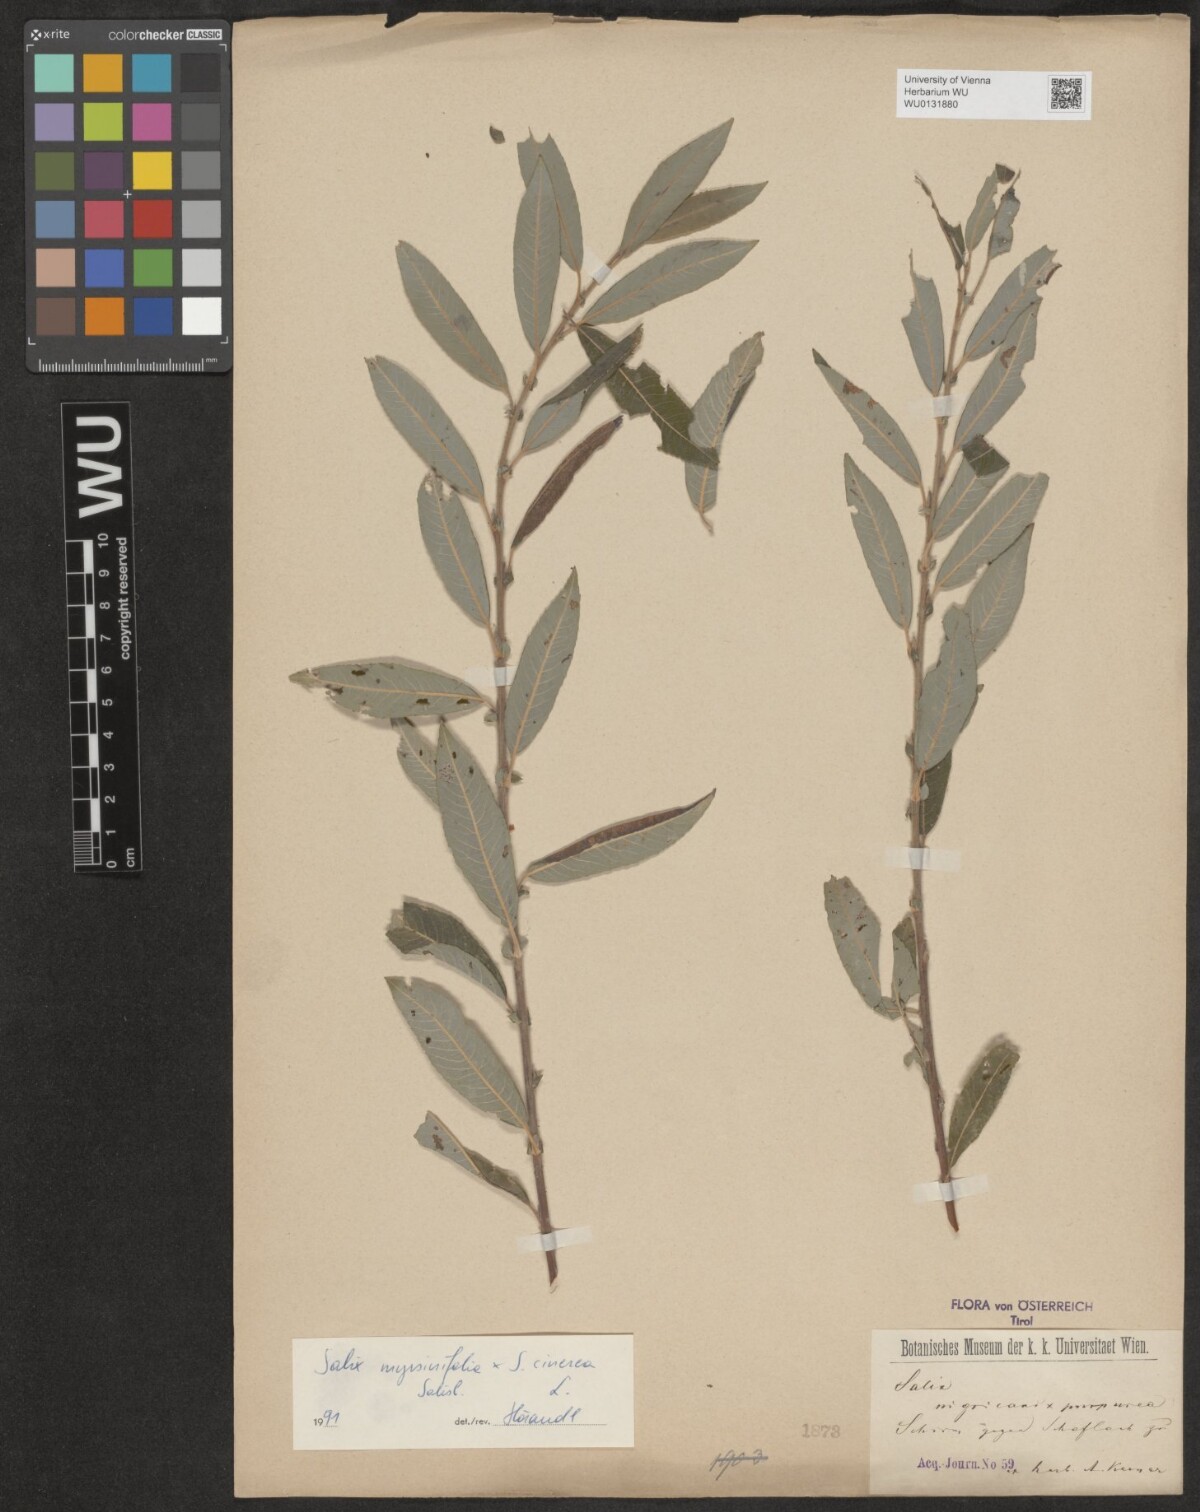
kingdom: Plantae
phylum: Tracheophyta
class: Magnoliopsida
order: Malpighiales
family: Salicaceae
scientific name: Salicaceae
